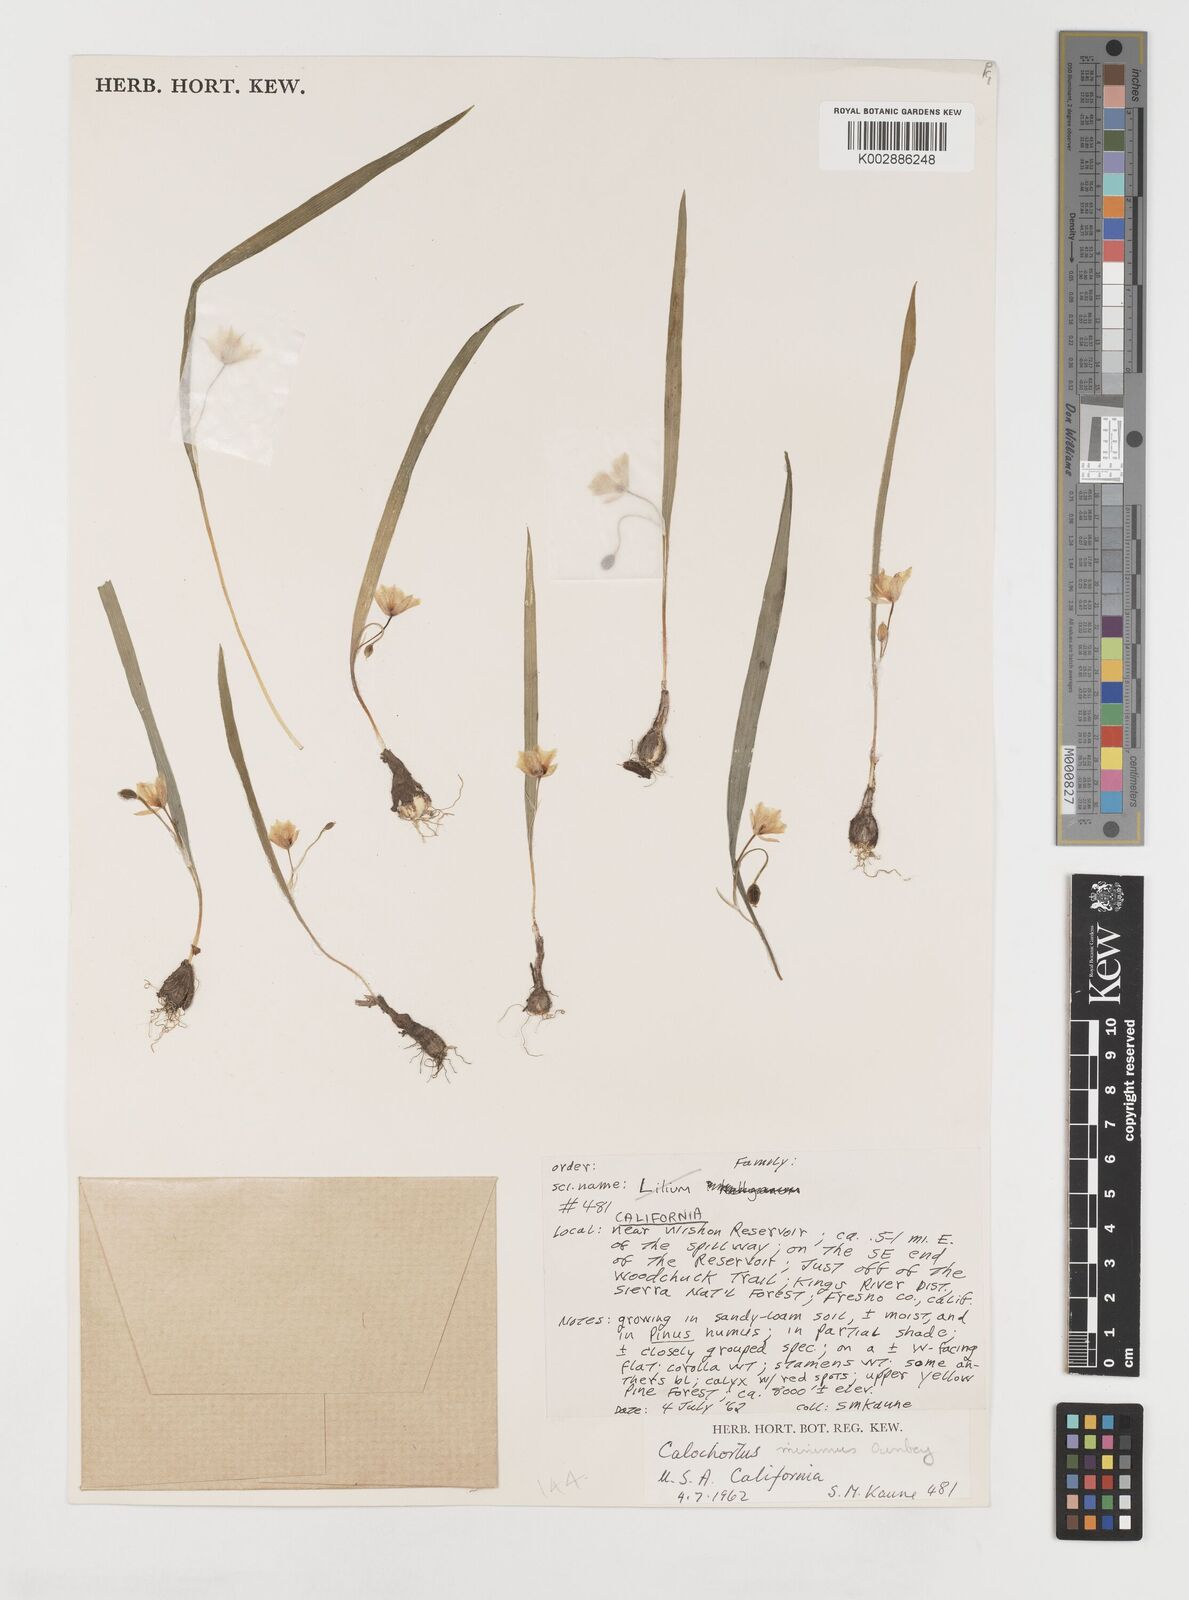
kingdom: Plantae
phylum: Tracheophyta
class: Liliopsida
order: Liliales
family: Liliaceae
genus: Calochortus
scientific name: Calochortus minimus
